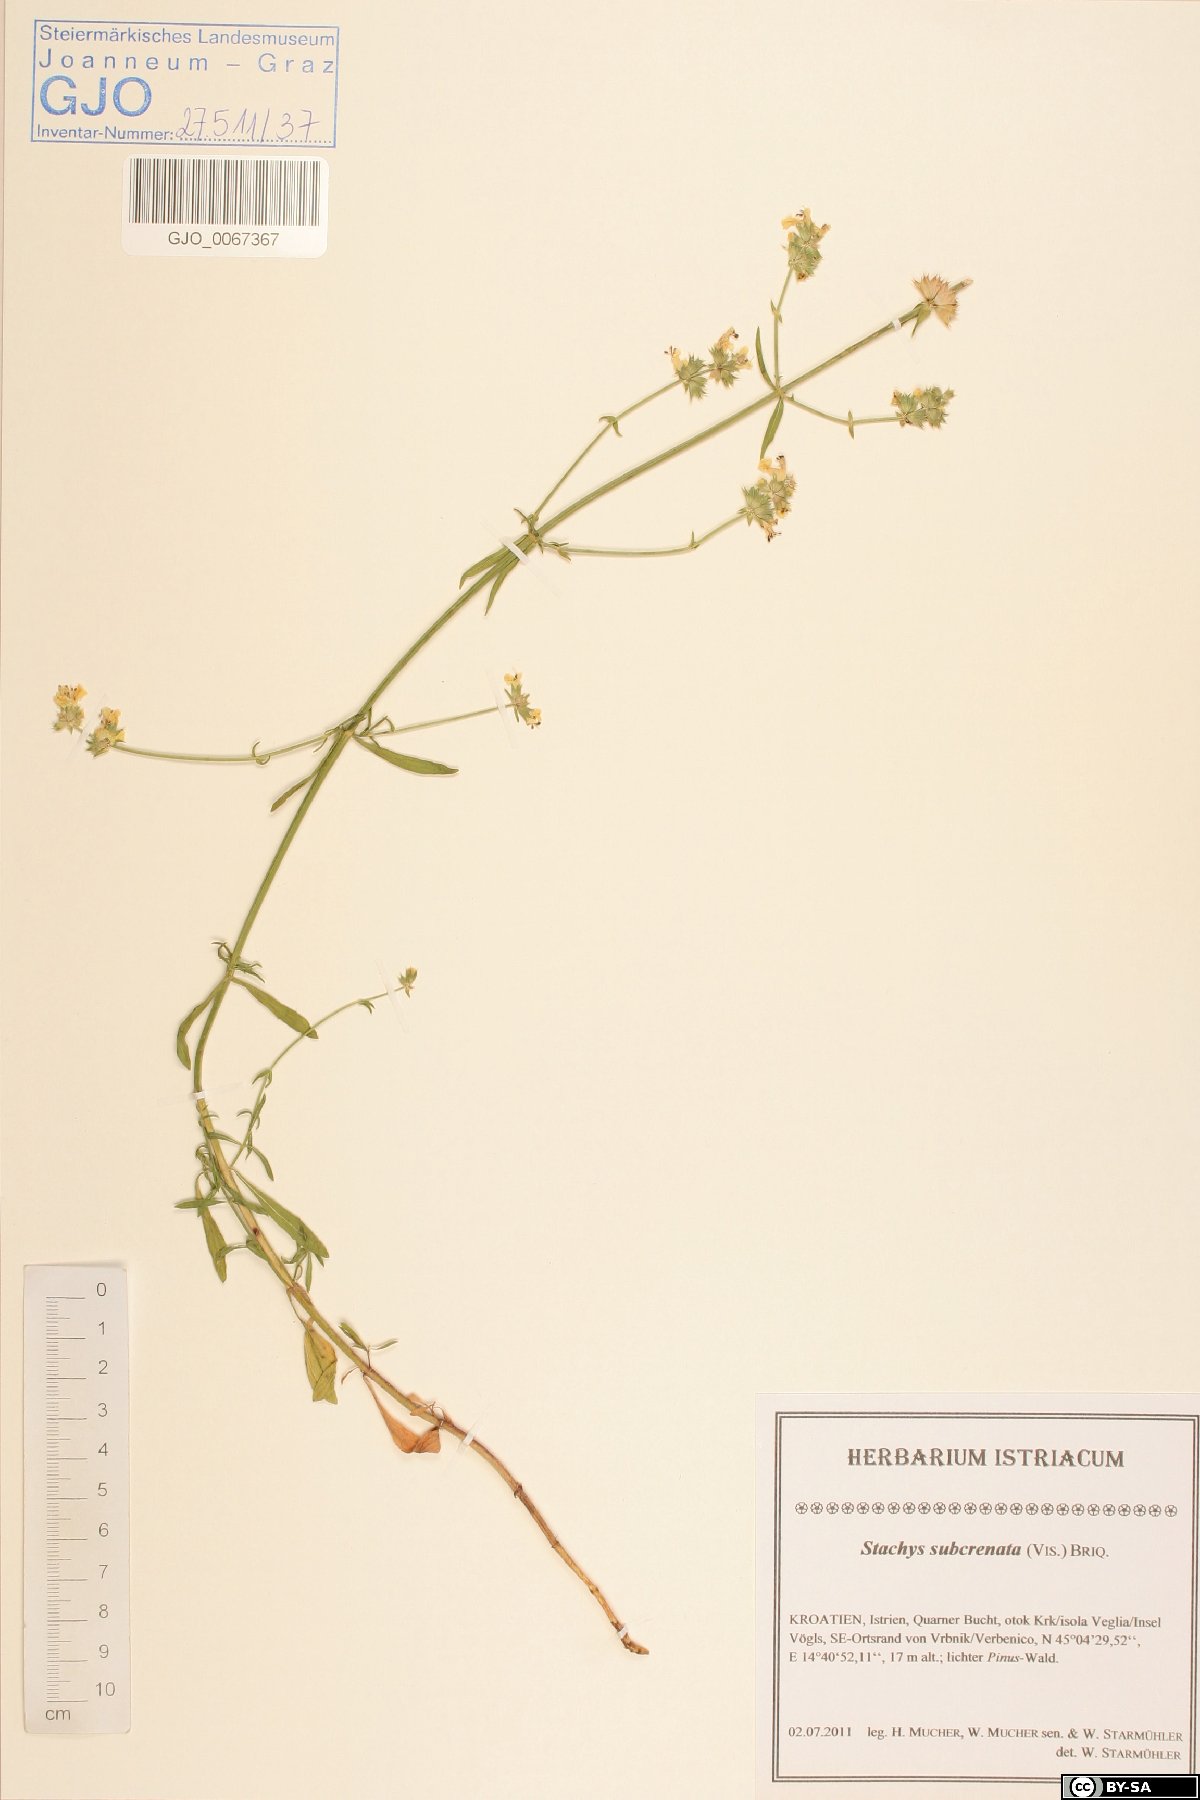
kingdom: Plantae
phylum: Tracheophyta
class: Magnoliopsida
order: Lamiales
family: Lamiaceae
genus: Stachys
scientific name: Stachys recta
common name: Perennial yellow-woundwort
